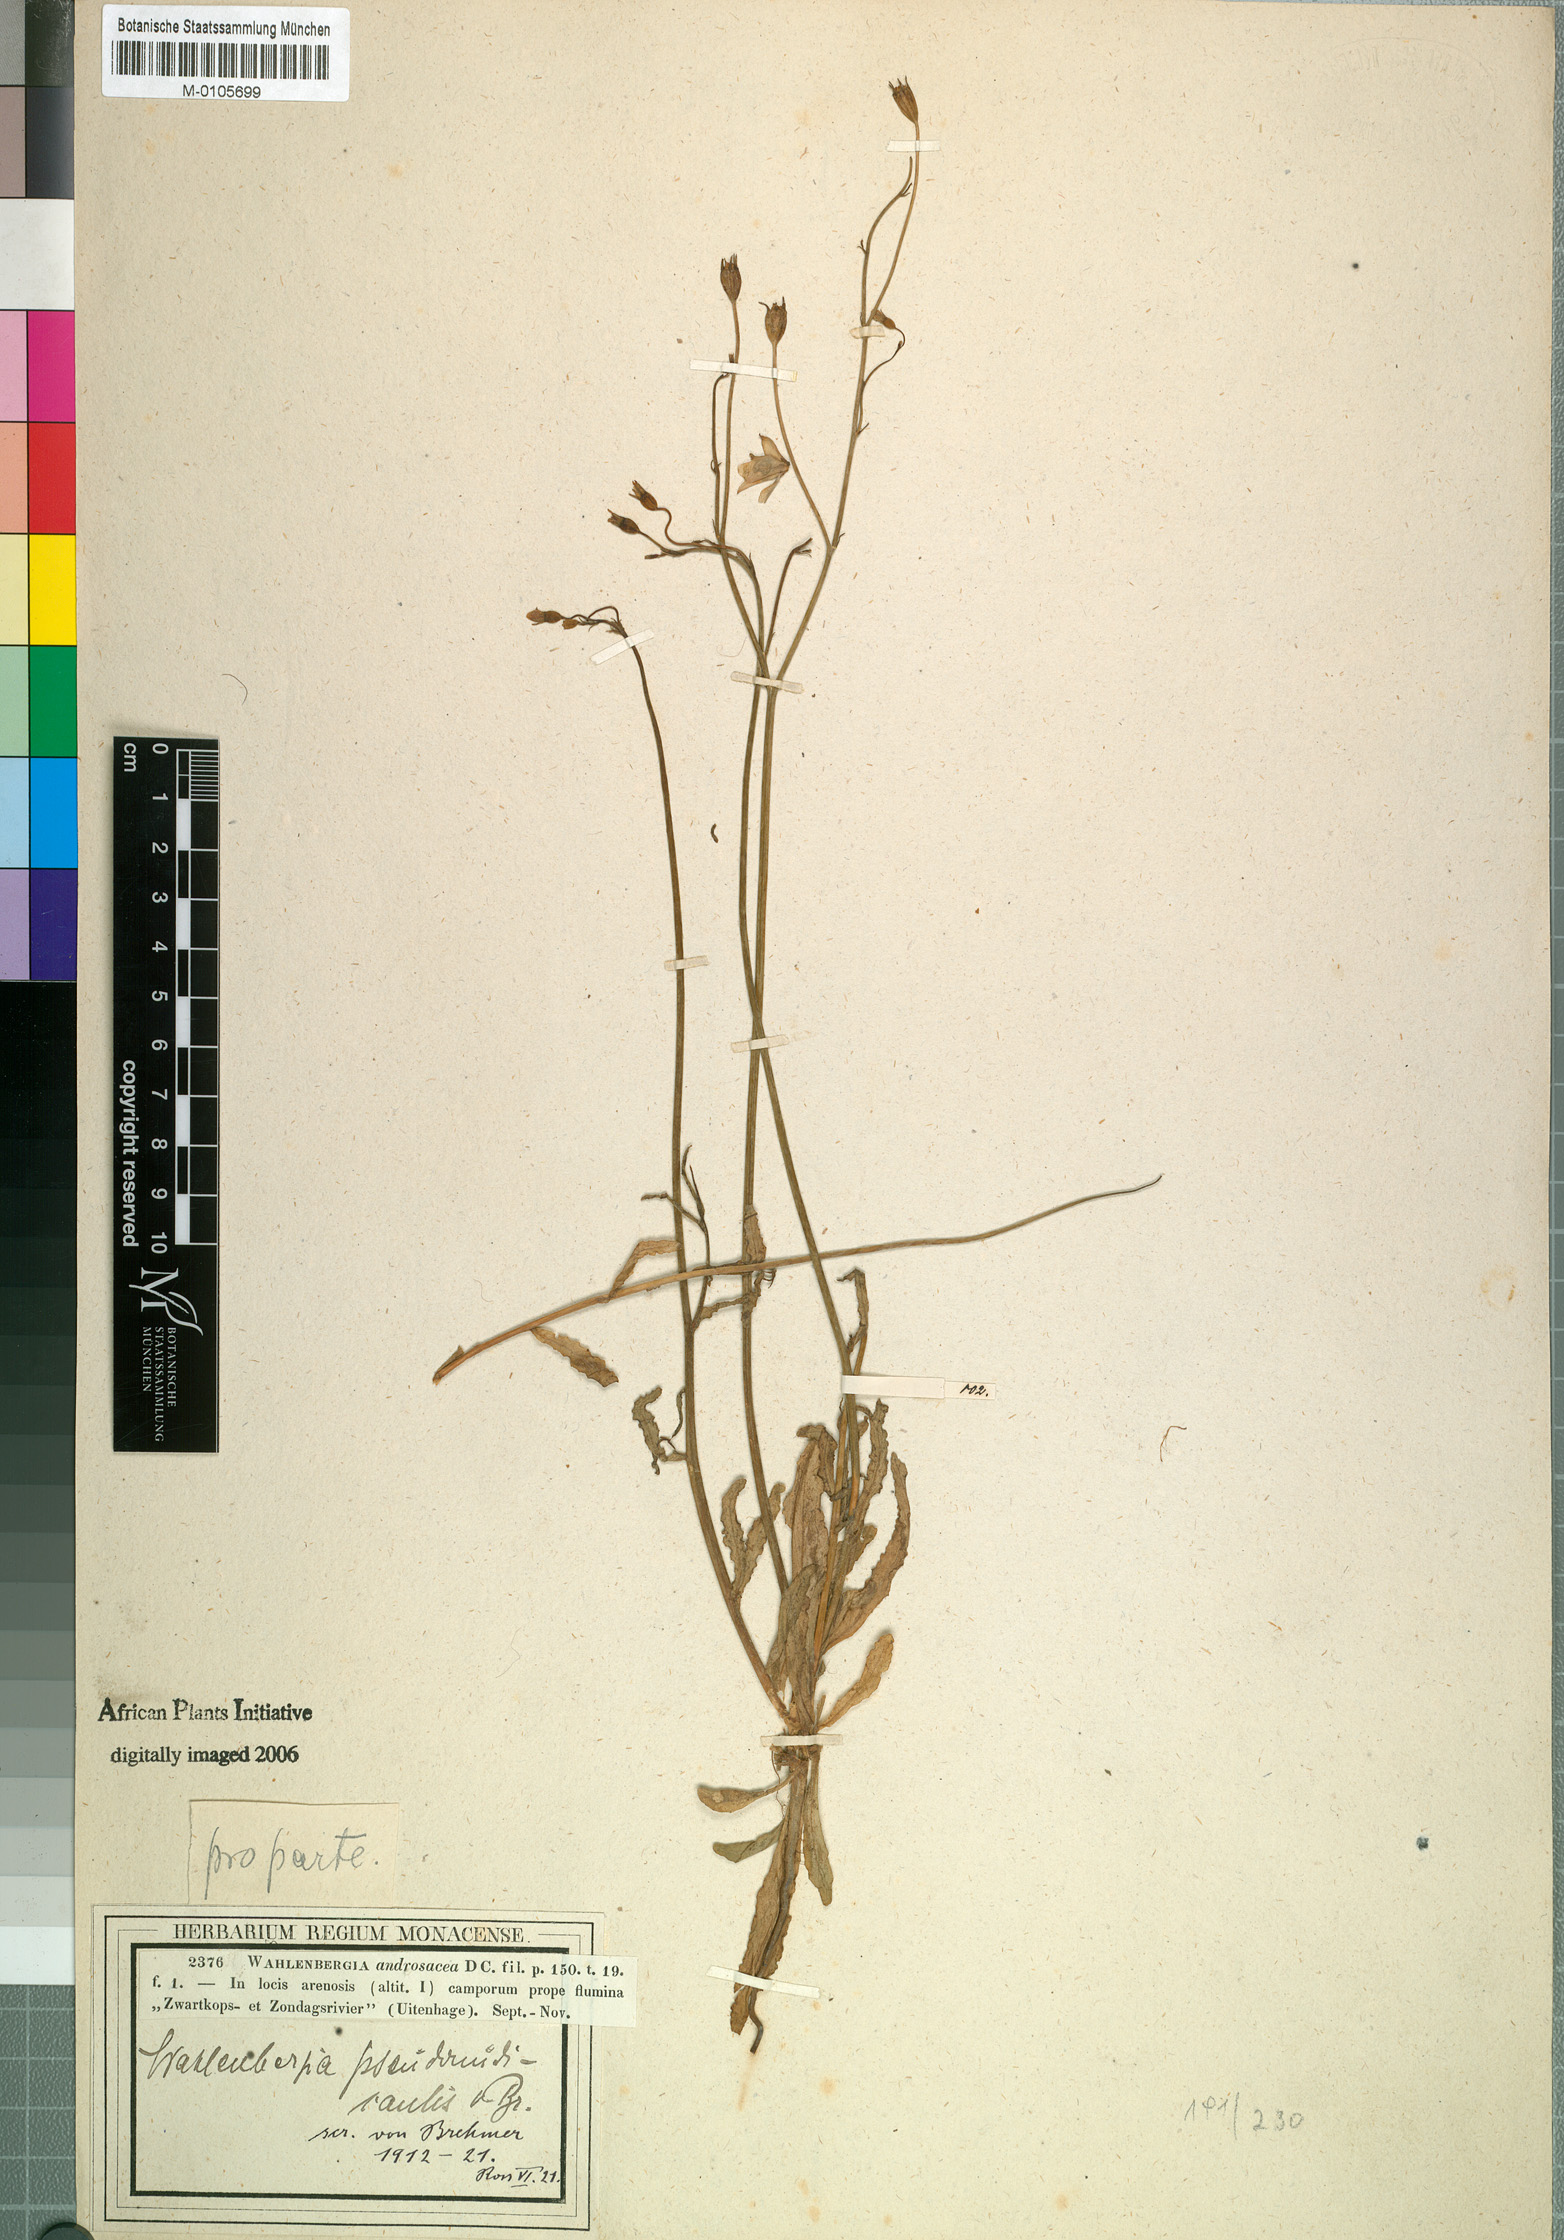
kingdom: Plantae
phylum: Tracheophyta
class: Magnoliopsida
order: Asterales
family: Campanulaceae
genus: Wahlenbergia
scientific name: Wahlenbergia pseudonudicaulis
